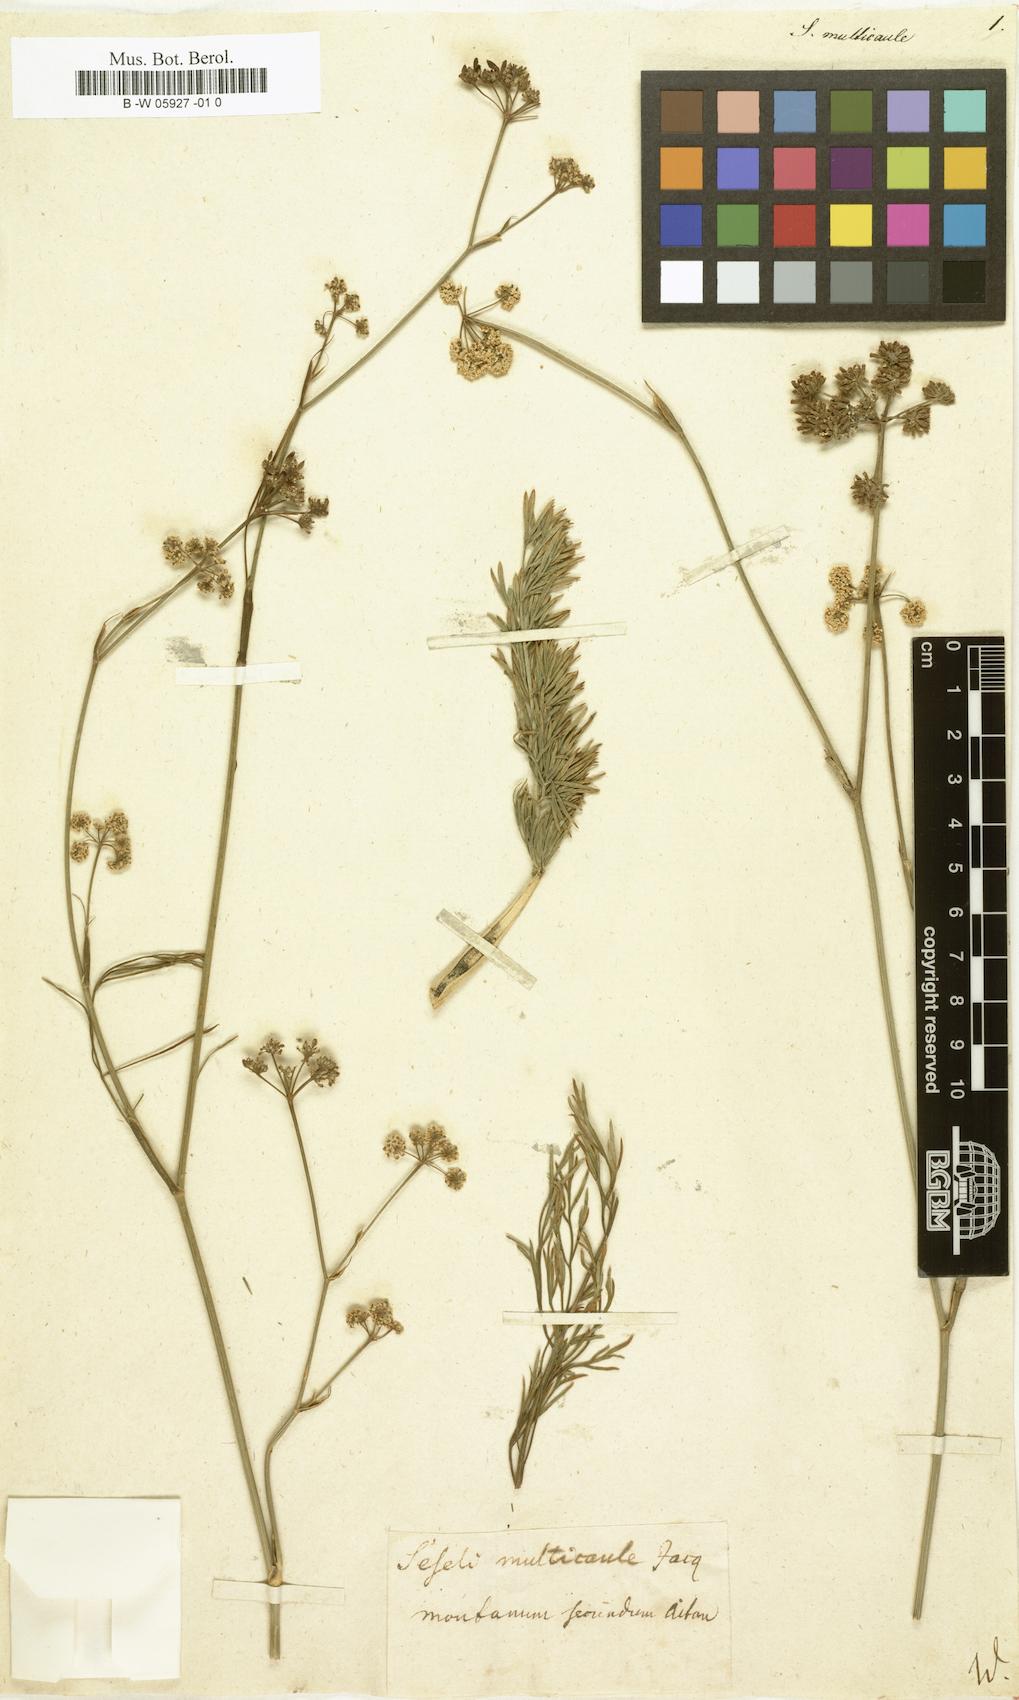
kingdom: Plantae
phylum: Tracheophyta
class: Magnoliopsida
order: Apiales
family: Apiaceae
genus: Seseli
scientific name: Seseli montanum
